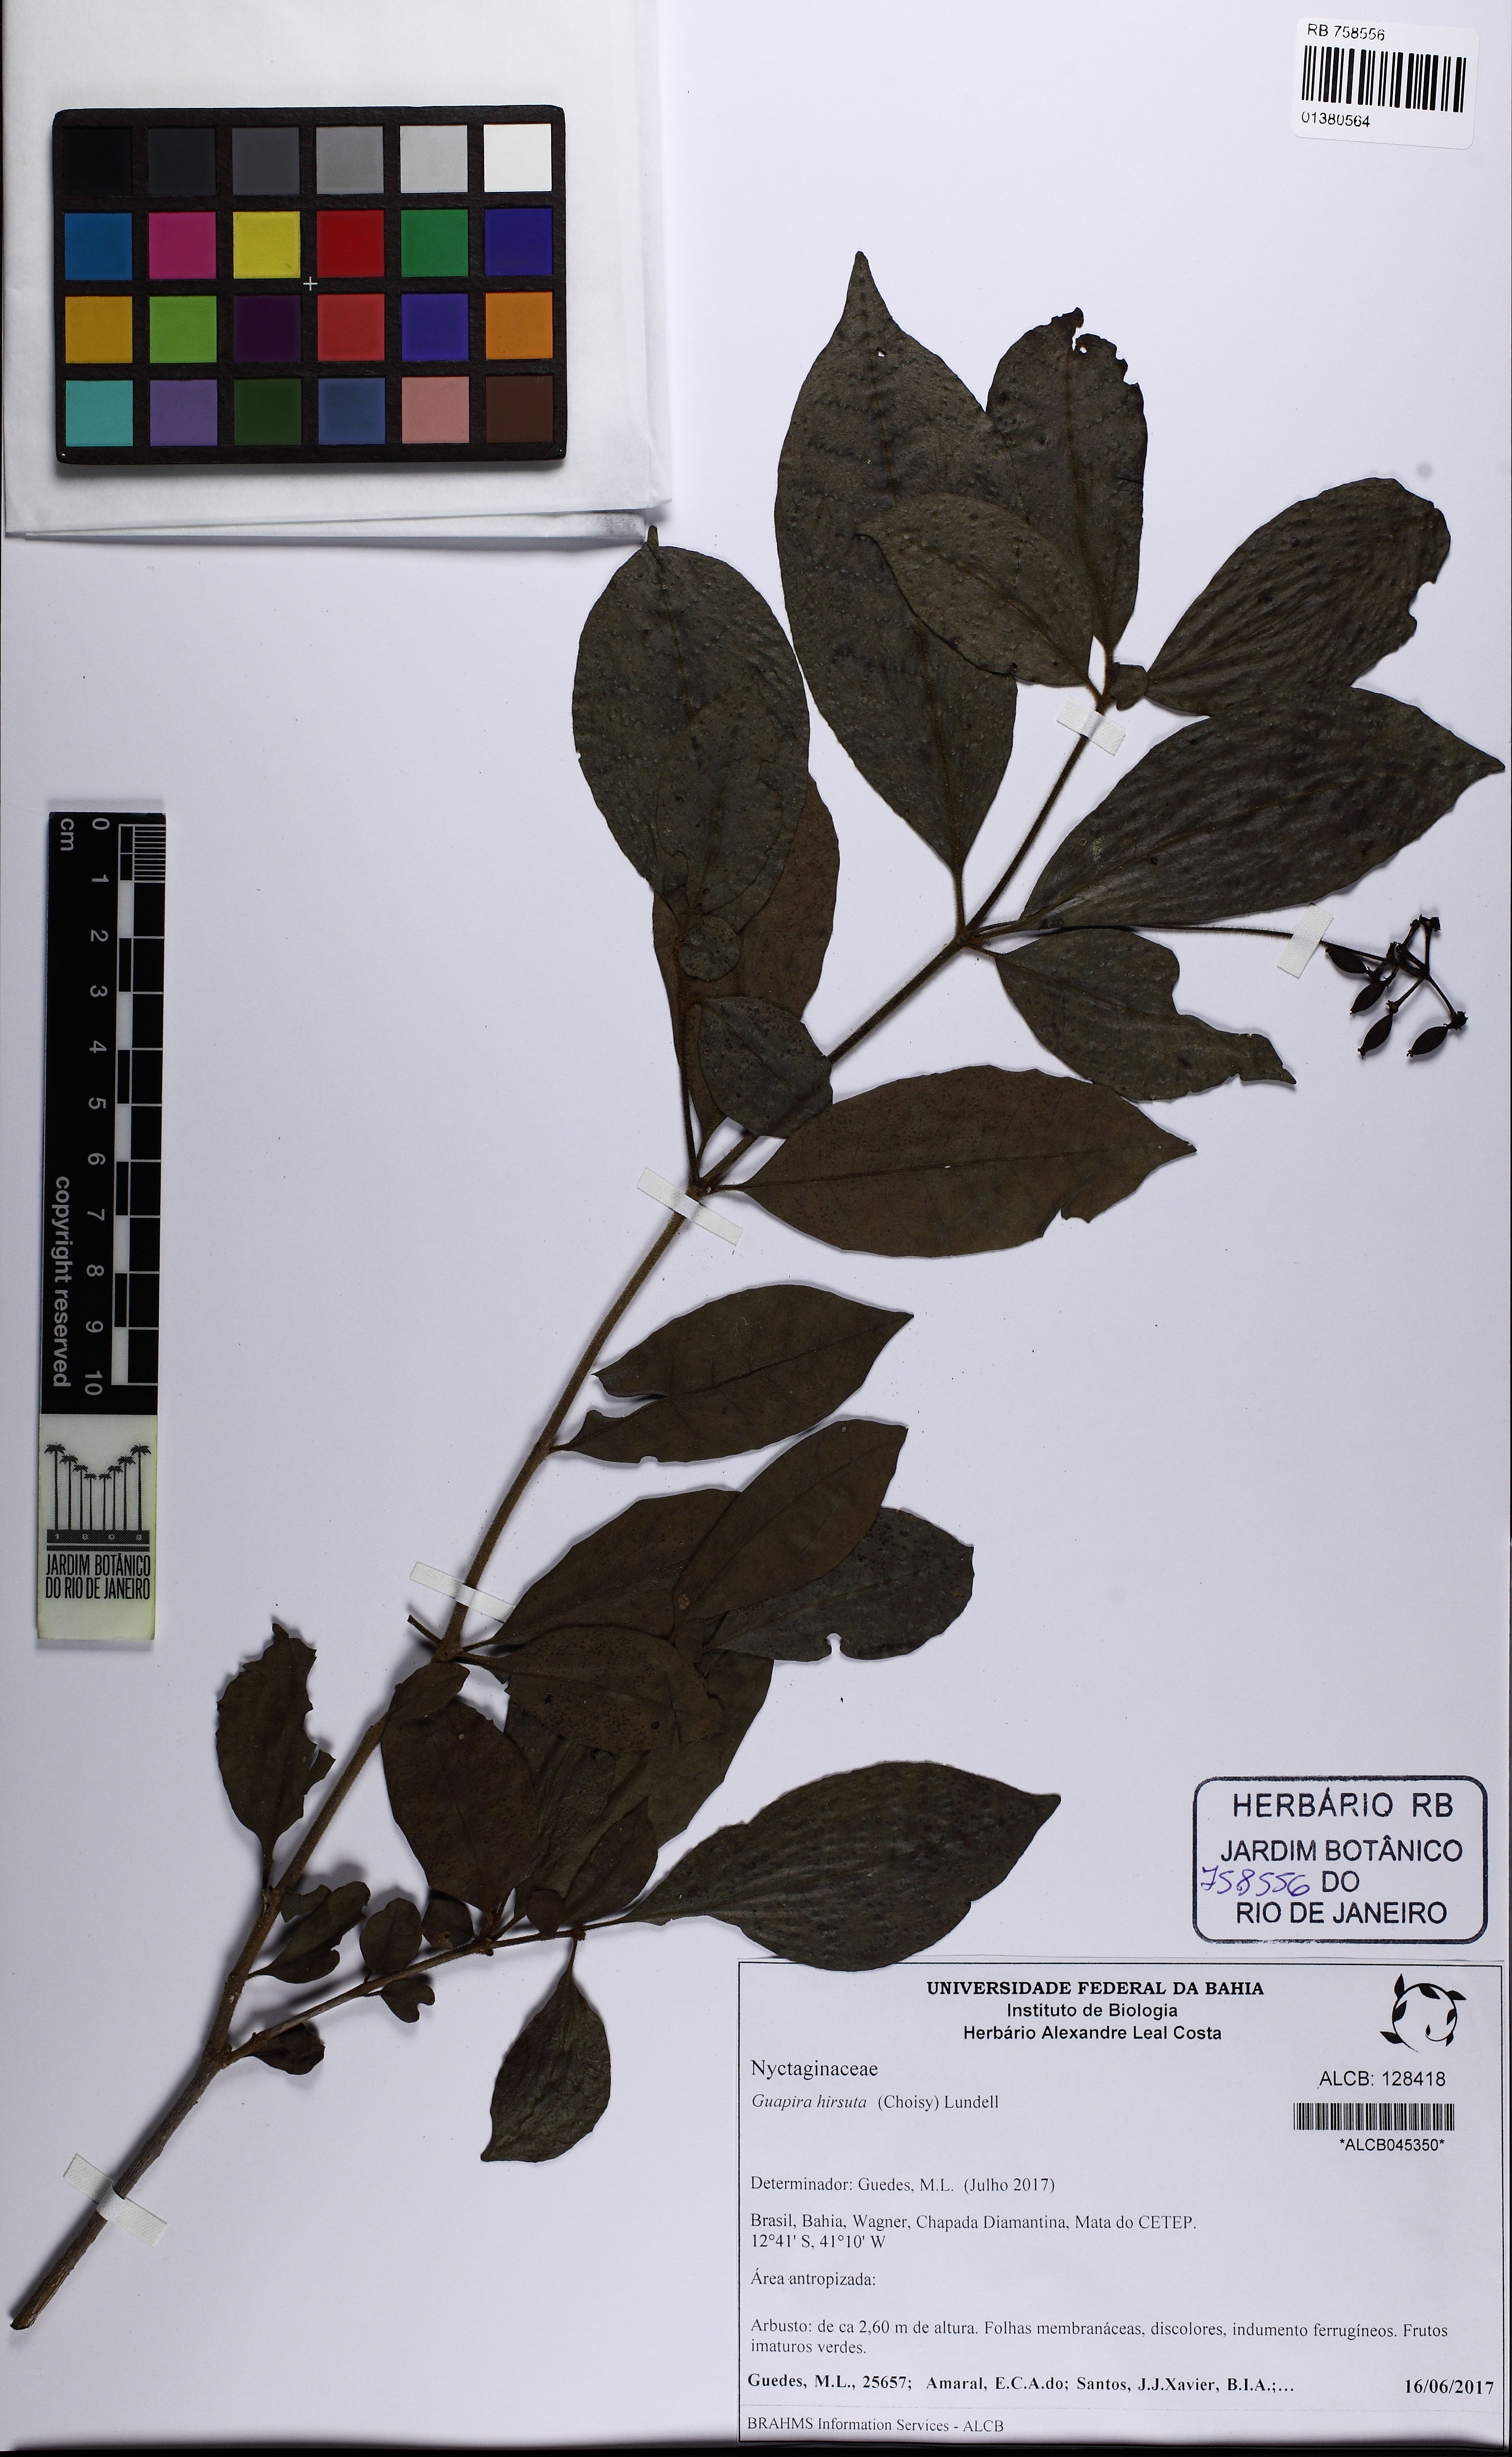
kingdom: Plantae
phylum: Tracheophyta
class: Magnoliopsida
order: Caryophyllales
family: Nyctaginaceae
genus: Guapira
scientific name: Guapira hirsuta
